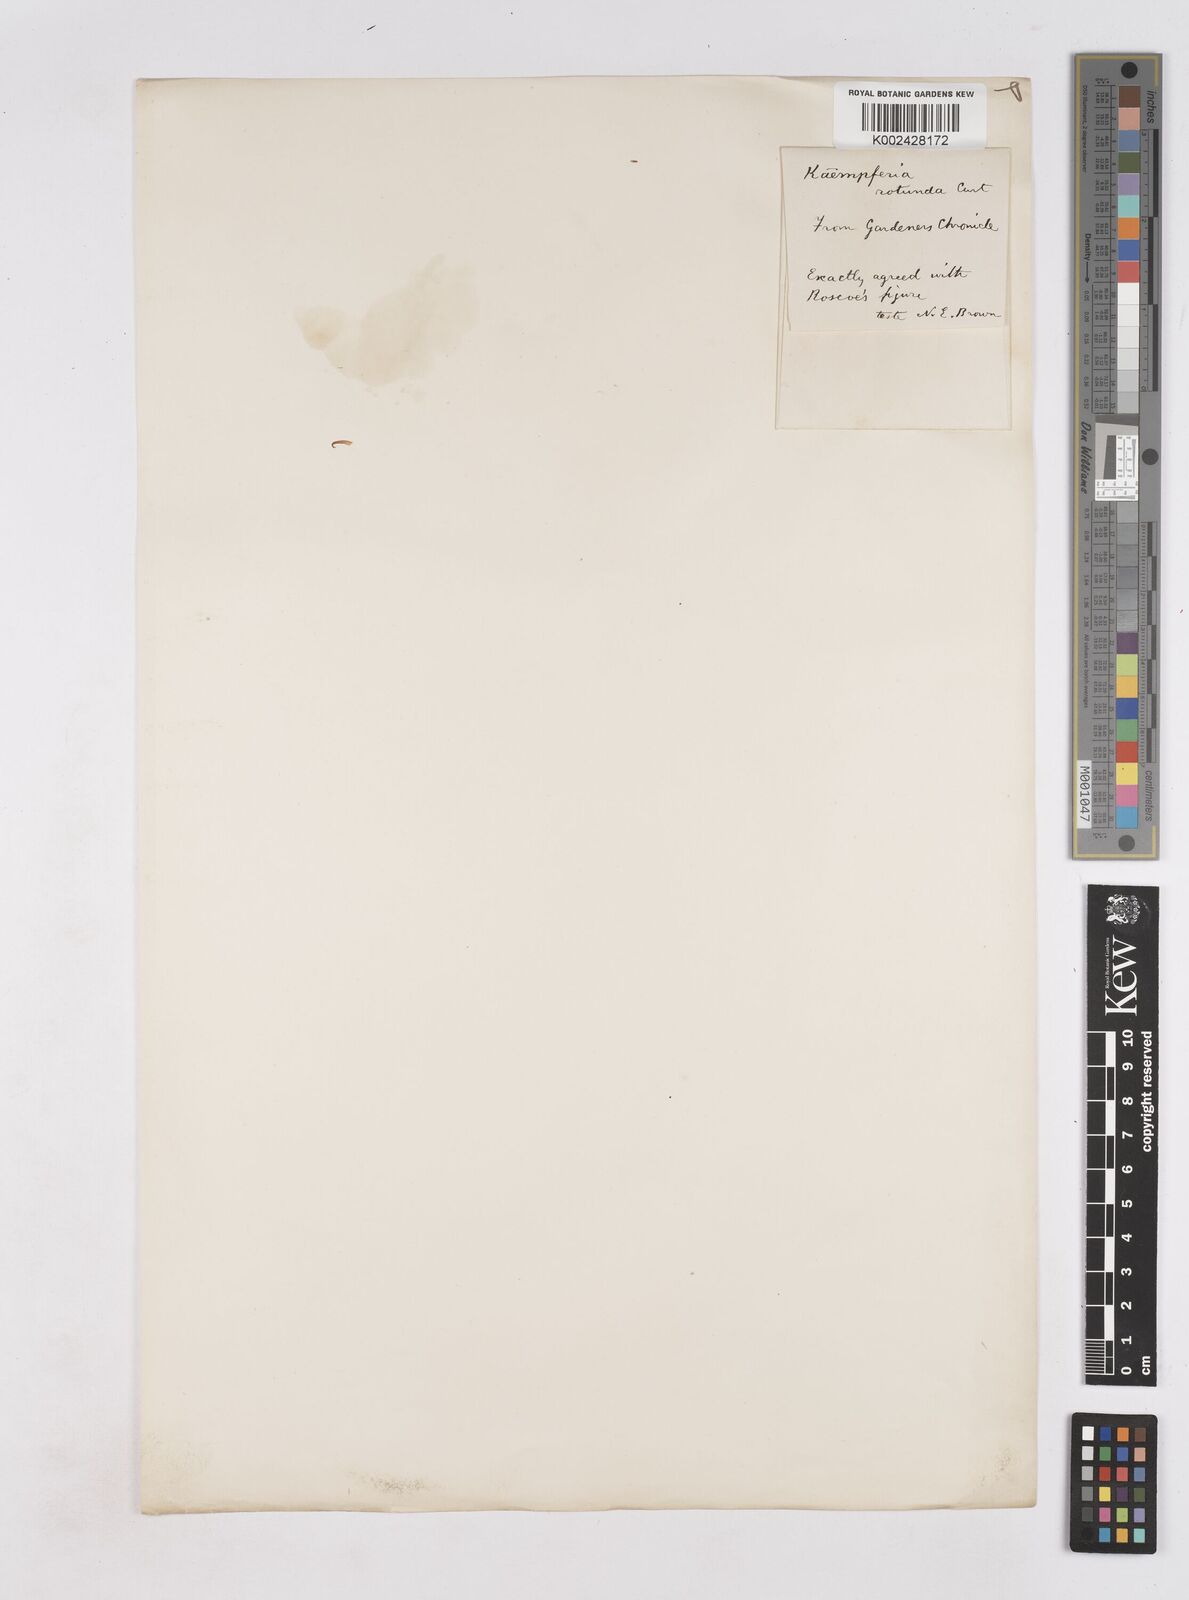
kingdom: Plantae
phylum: Tracheophyta
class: Liliopsida
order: Zingiberales
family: Zingiberaceae
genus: Kaempferia
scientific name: Kaempferia rotunda
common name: Tropical-crocus
